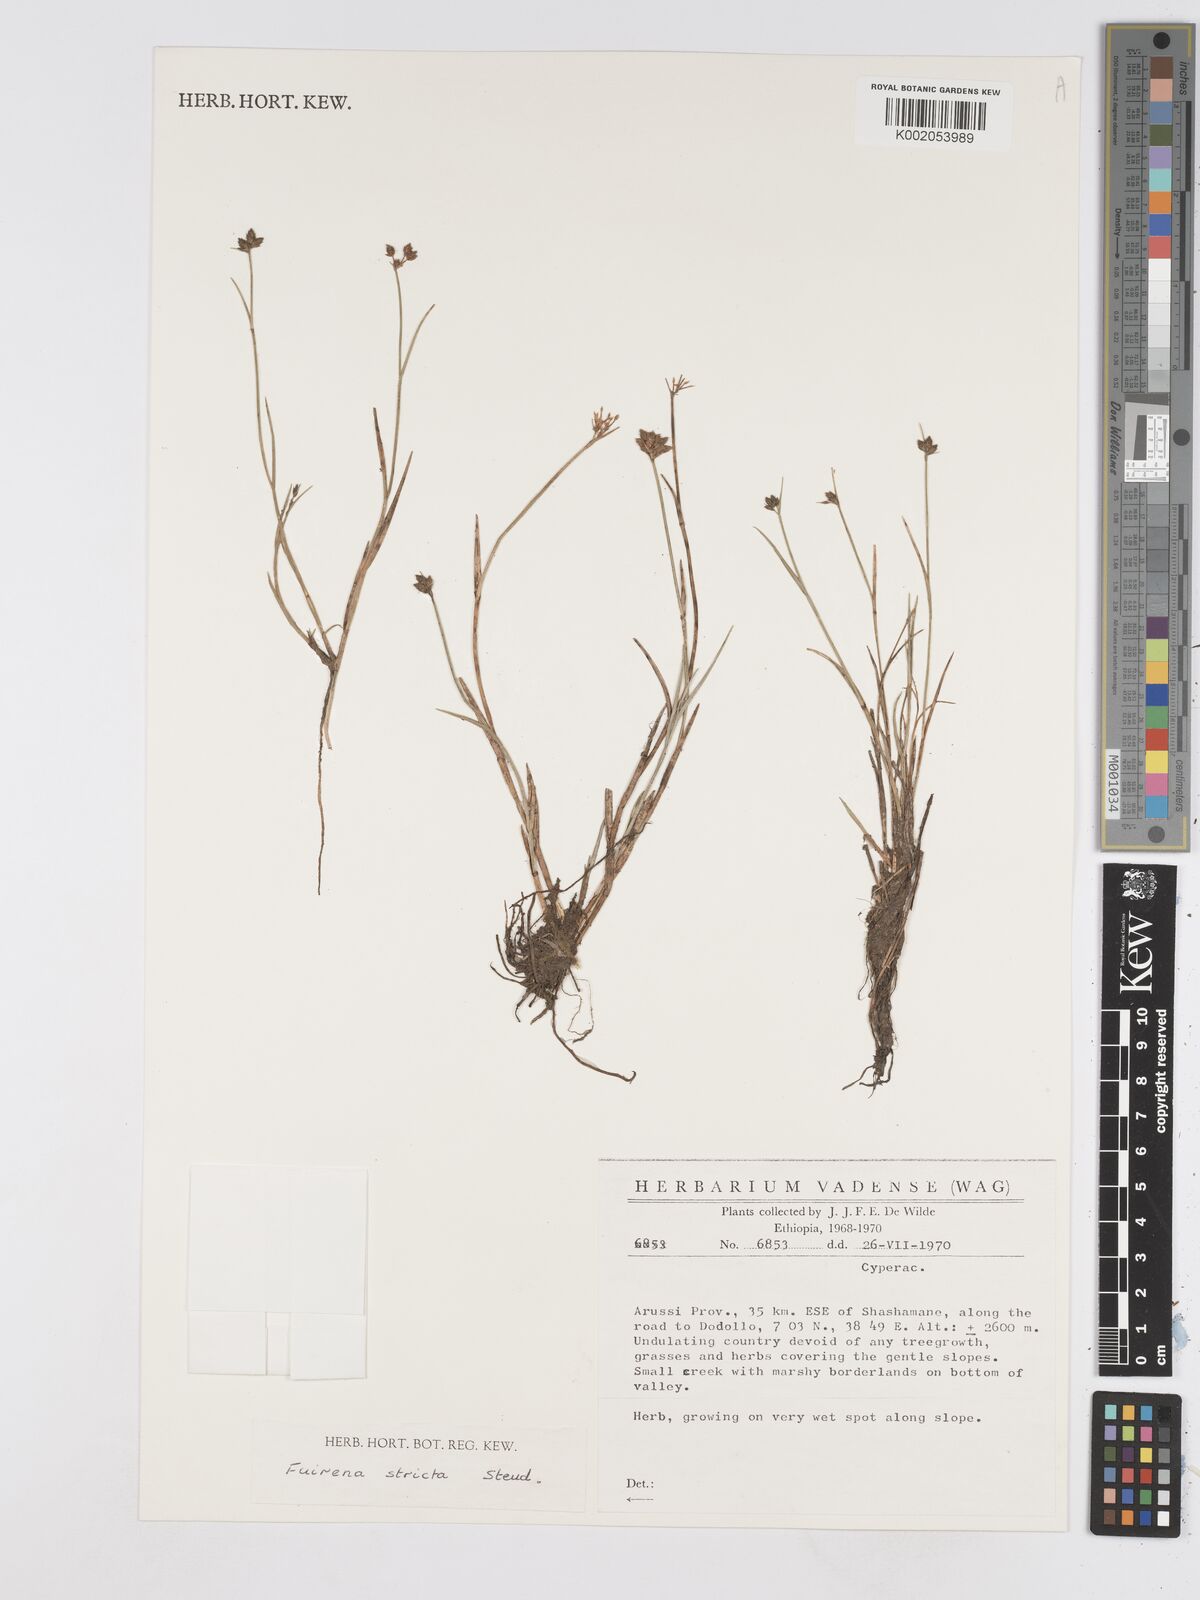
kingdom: Plantae
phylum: Tracheophyta
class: Liliopsida
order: Poales
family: Cyperaceae
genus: Fuirena
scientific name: Fuirena stricta
